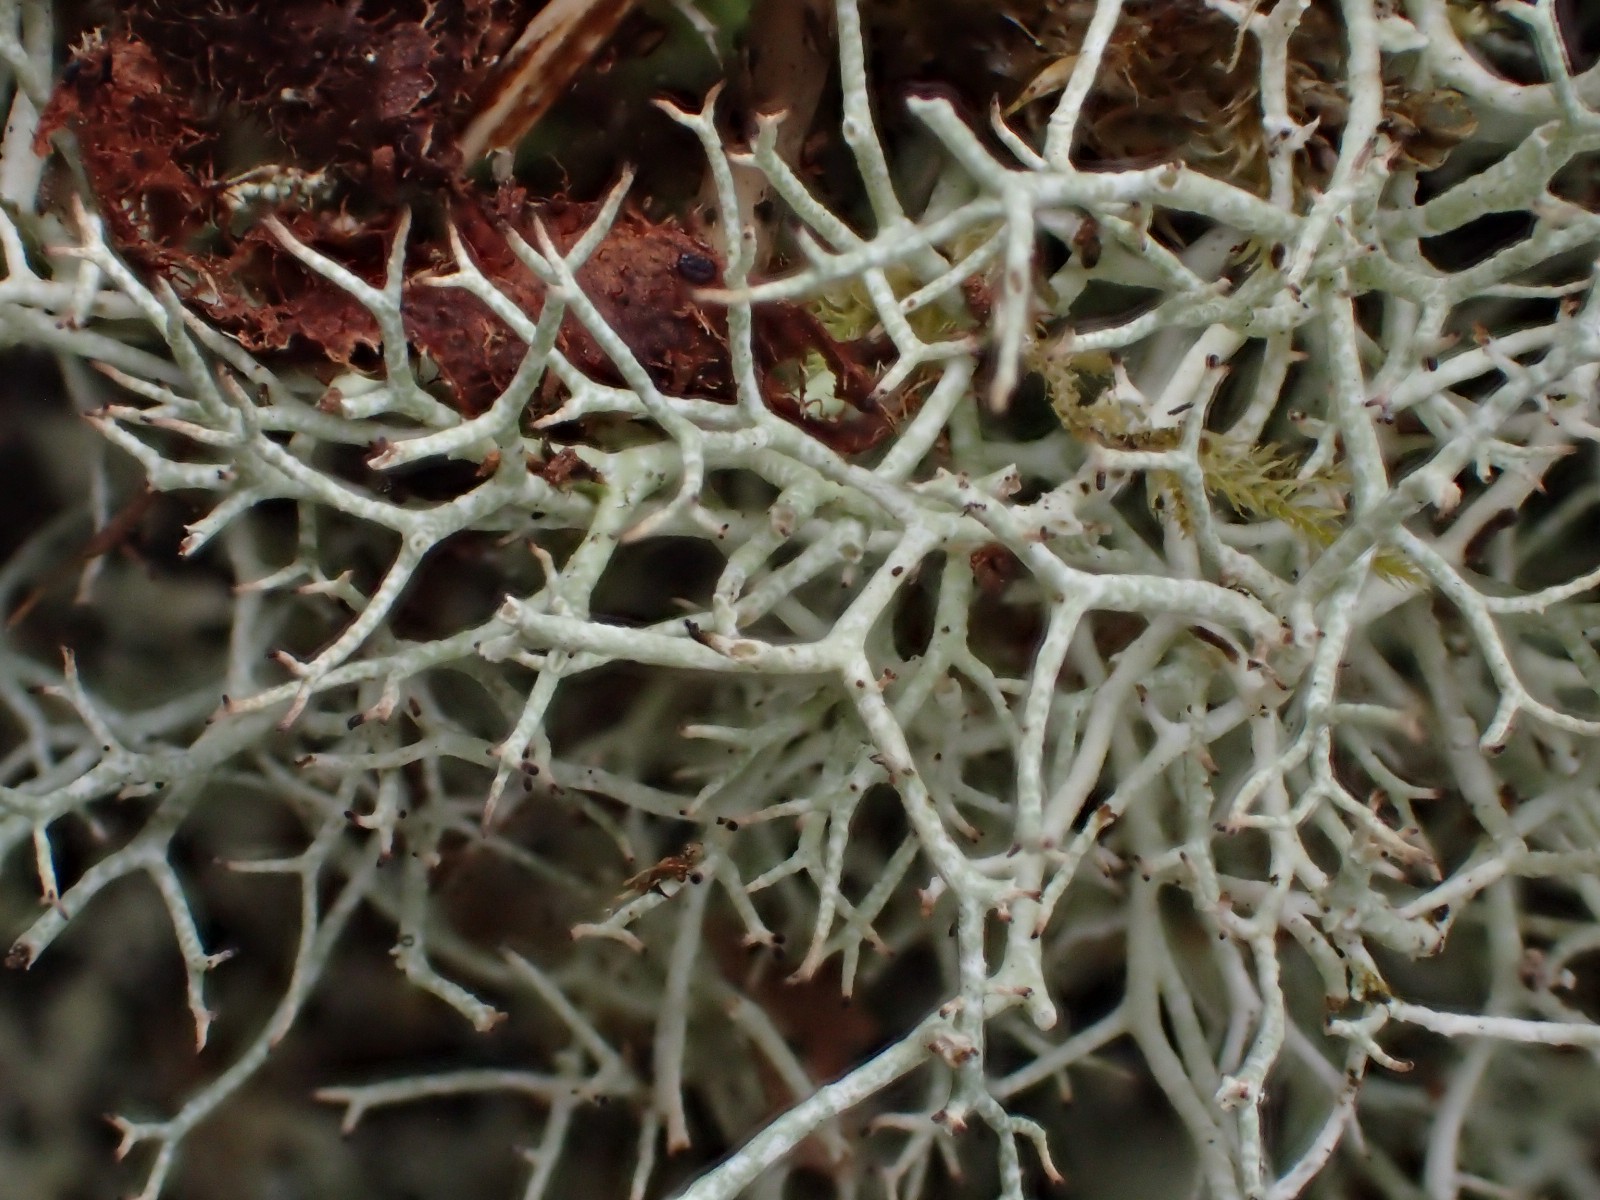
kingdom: Fungi
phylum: Ascomycota
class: Lecanoromycetes
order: Lecanorales
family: Cladoniaceae
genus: Cladonia
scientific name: Cladonia rangiformis
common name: spættet bægerlav
